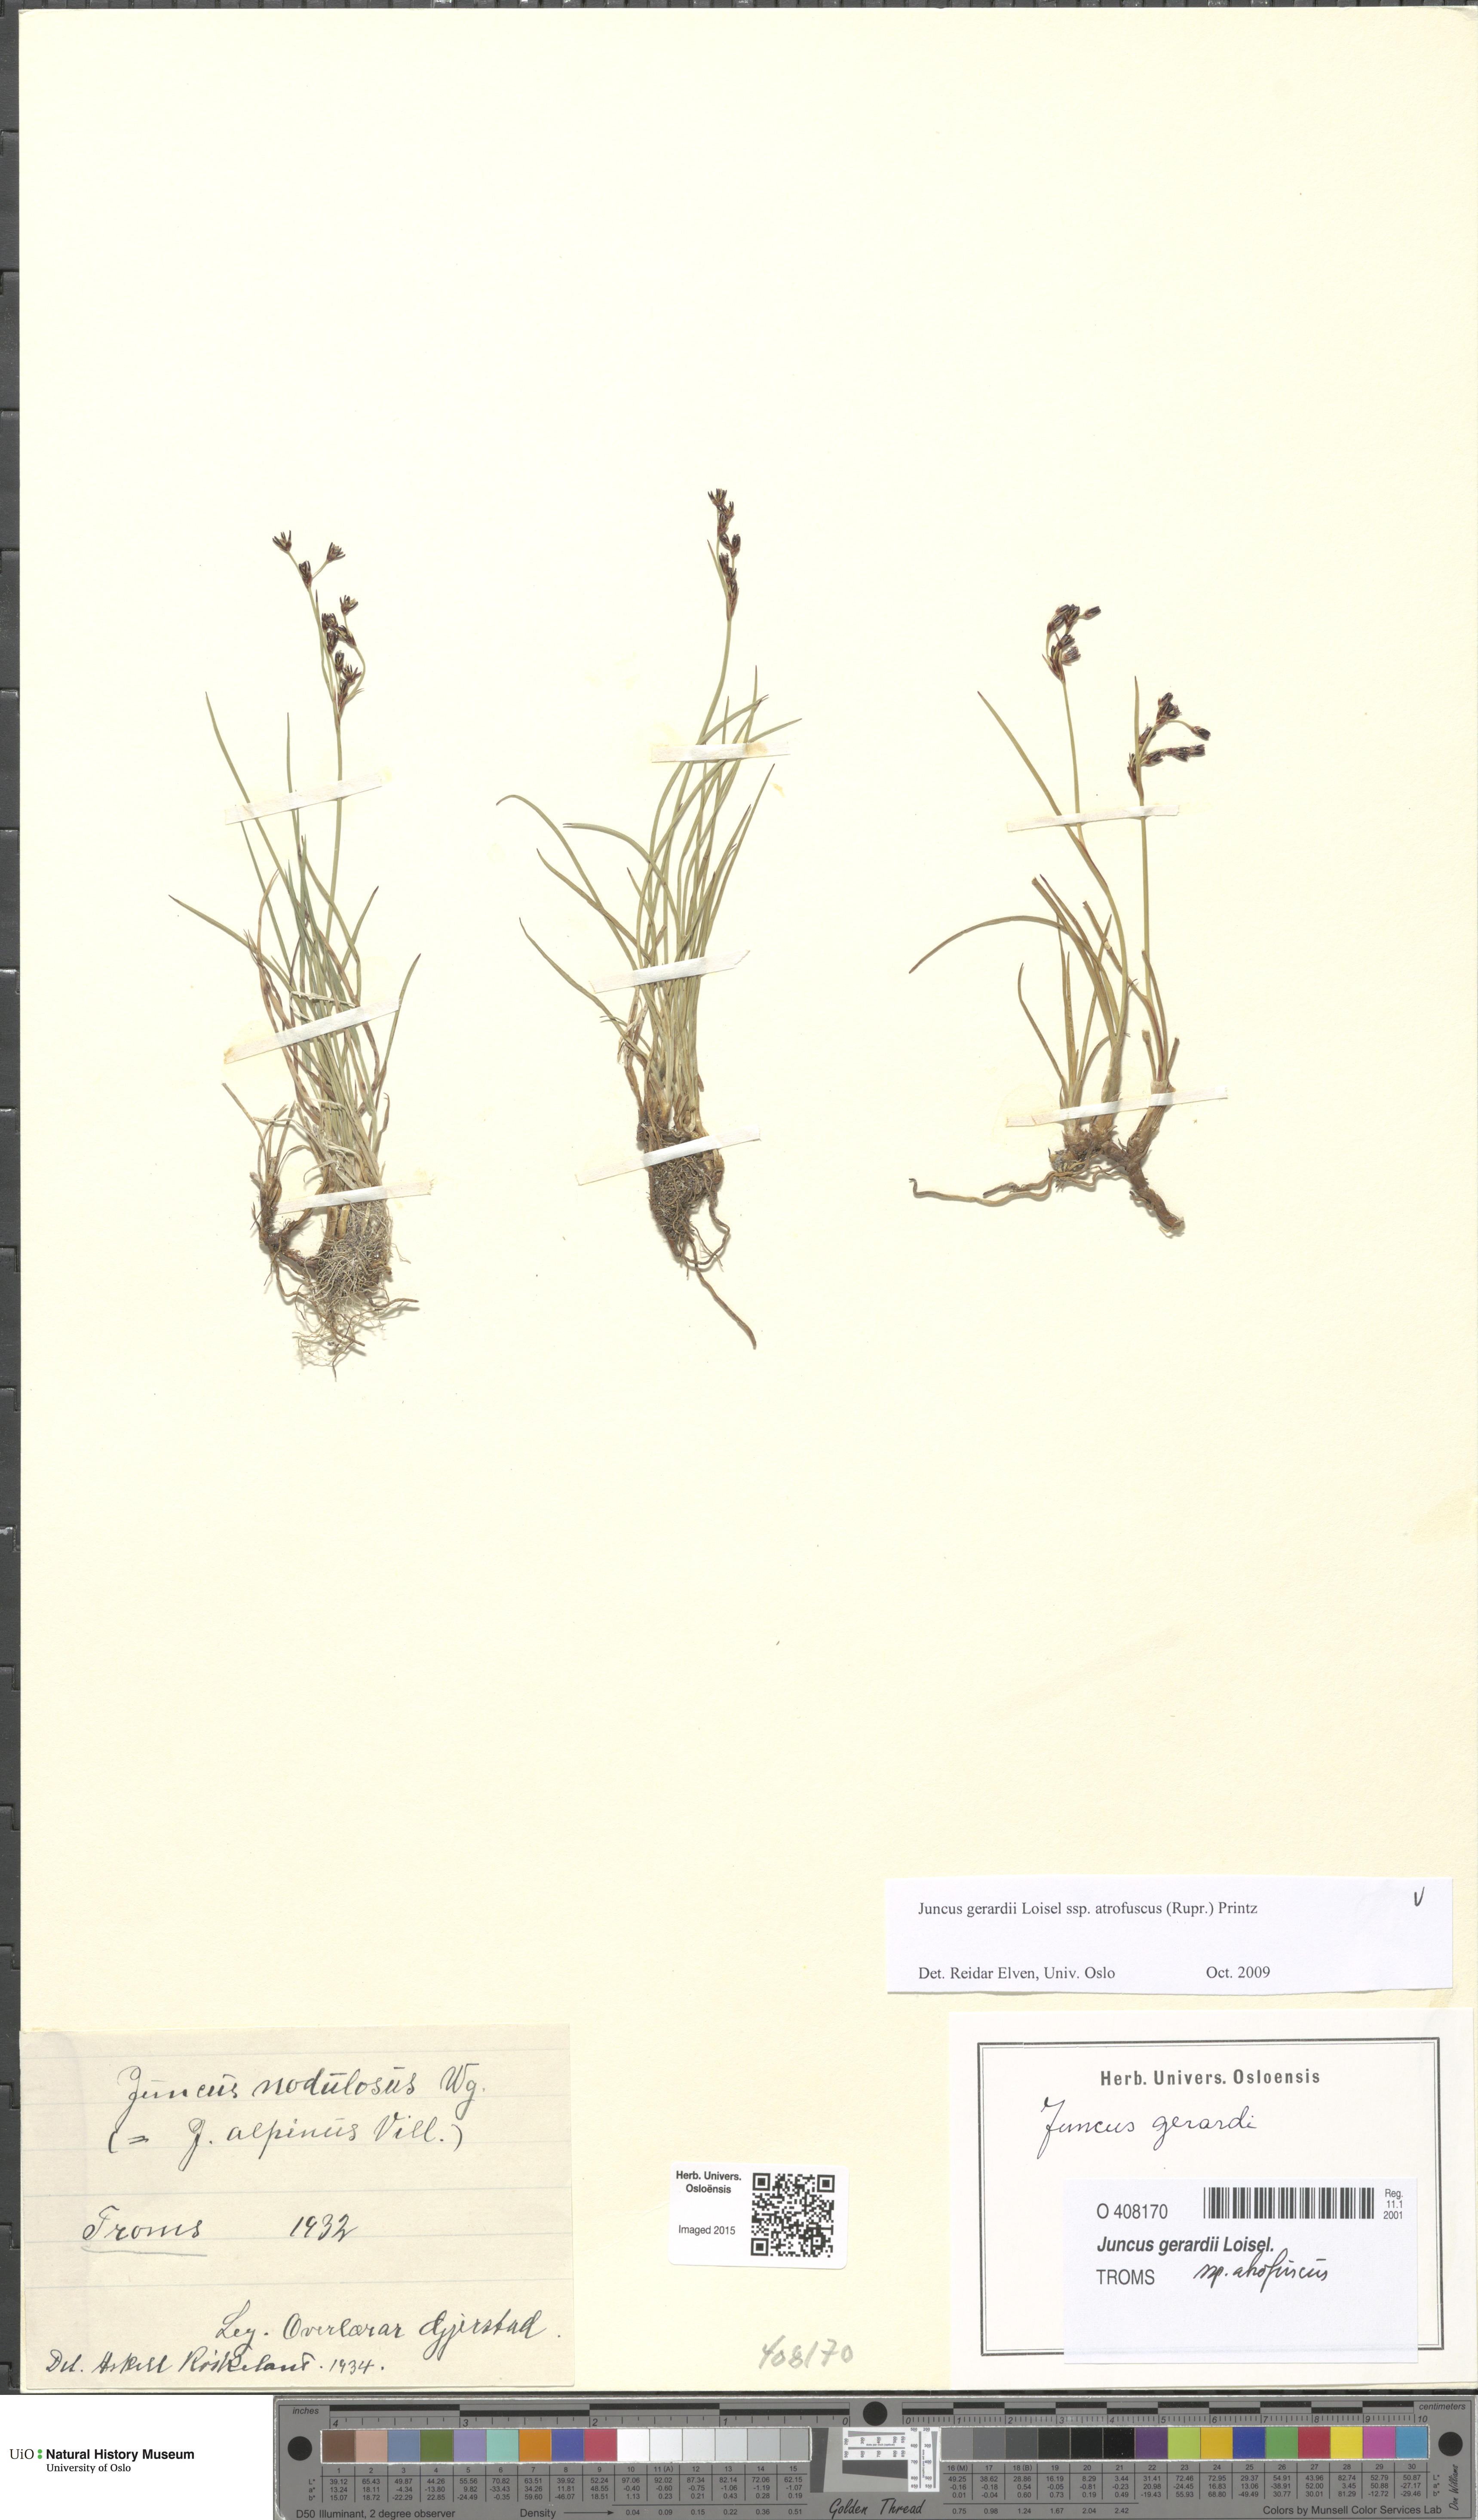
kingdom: Plantae
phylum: Tracheophyta
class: Liliopsida
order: Poales
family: Juncaceae
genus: Juncus
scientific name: Juncus gerardi
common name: Saltmarsh rush
